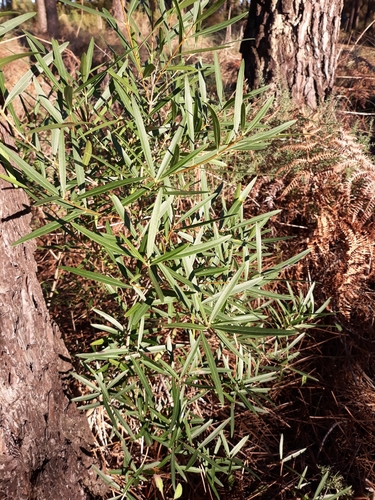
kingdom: Plantae
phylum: Tracheophyta
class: Magnoliopsida
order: Lamiales
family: Oleaceae
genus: Phillyrea
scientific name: Phillyrea angustifolia
